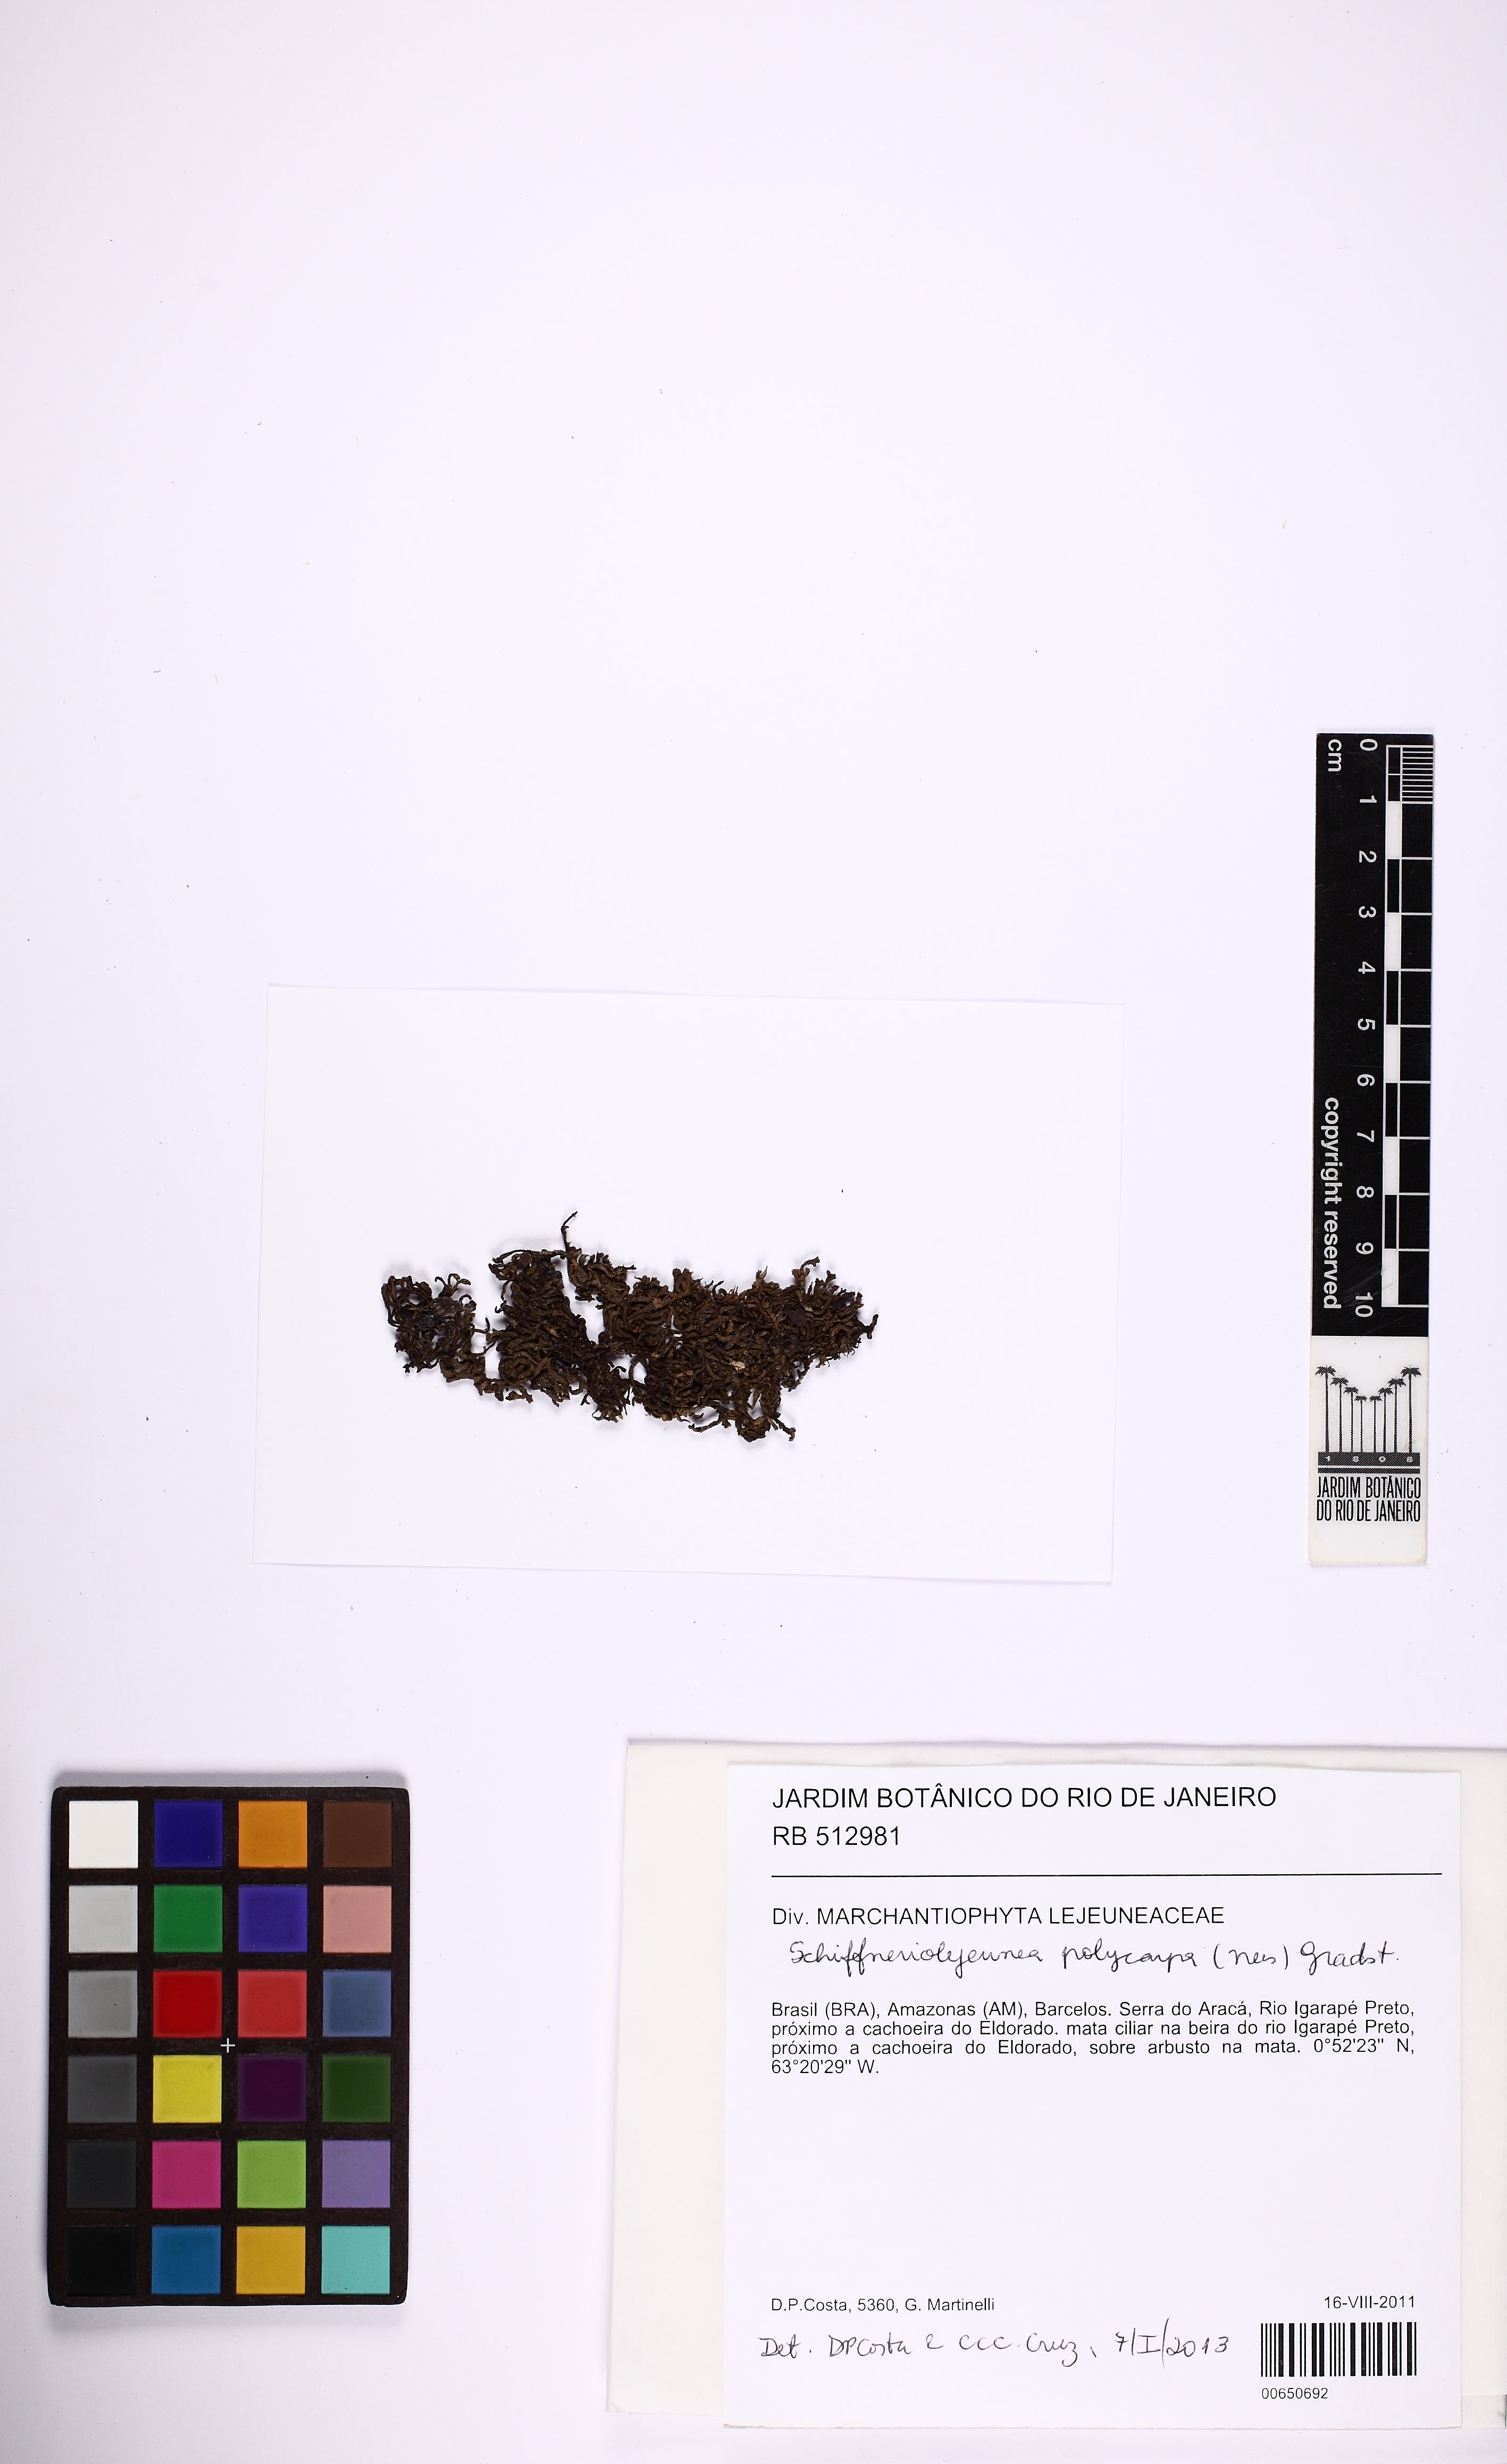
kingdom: Plantae
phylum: Marchantiophyta
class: Jungermanniopsida
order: Porellales
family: Lejeuneaceae
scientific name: Lejeuneaceae
